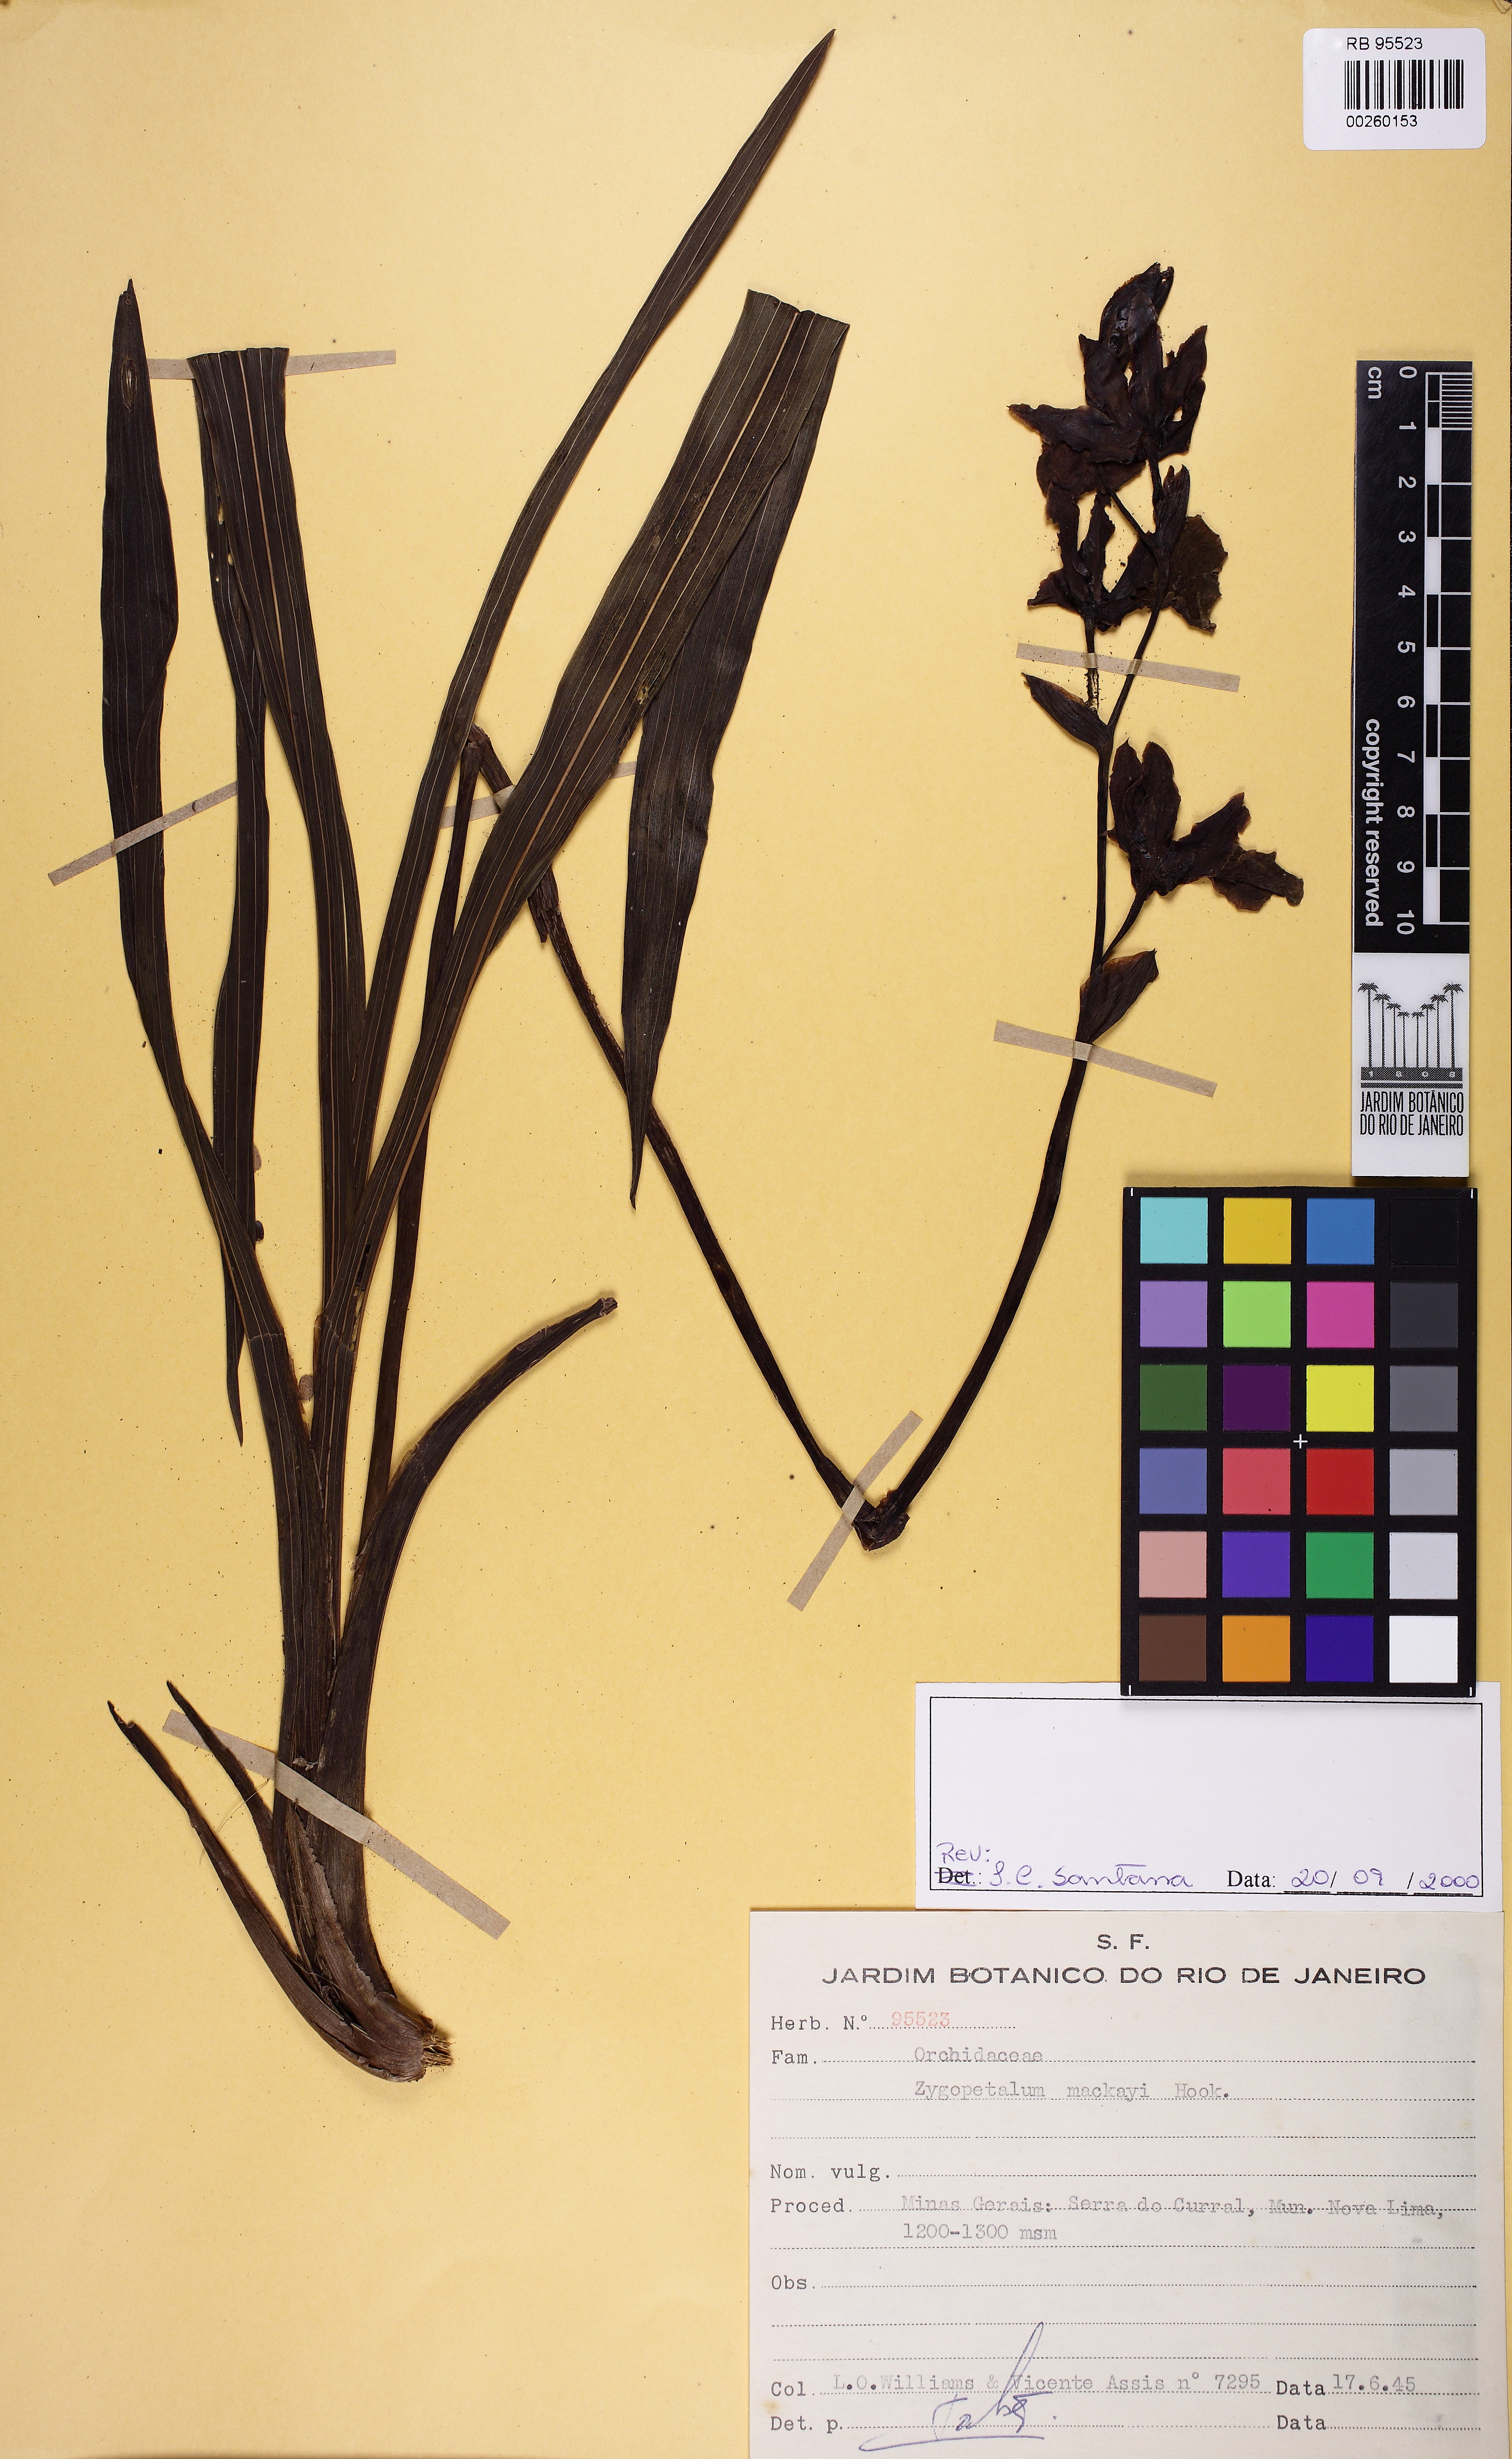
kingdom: Plantae
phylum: Tracheophyta
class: Liliopsida
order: Asparagales
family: Orchidaceae
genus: Zygopetalum
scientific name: Zygopetalum maculatum
